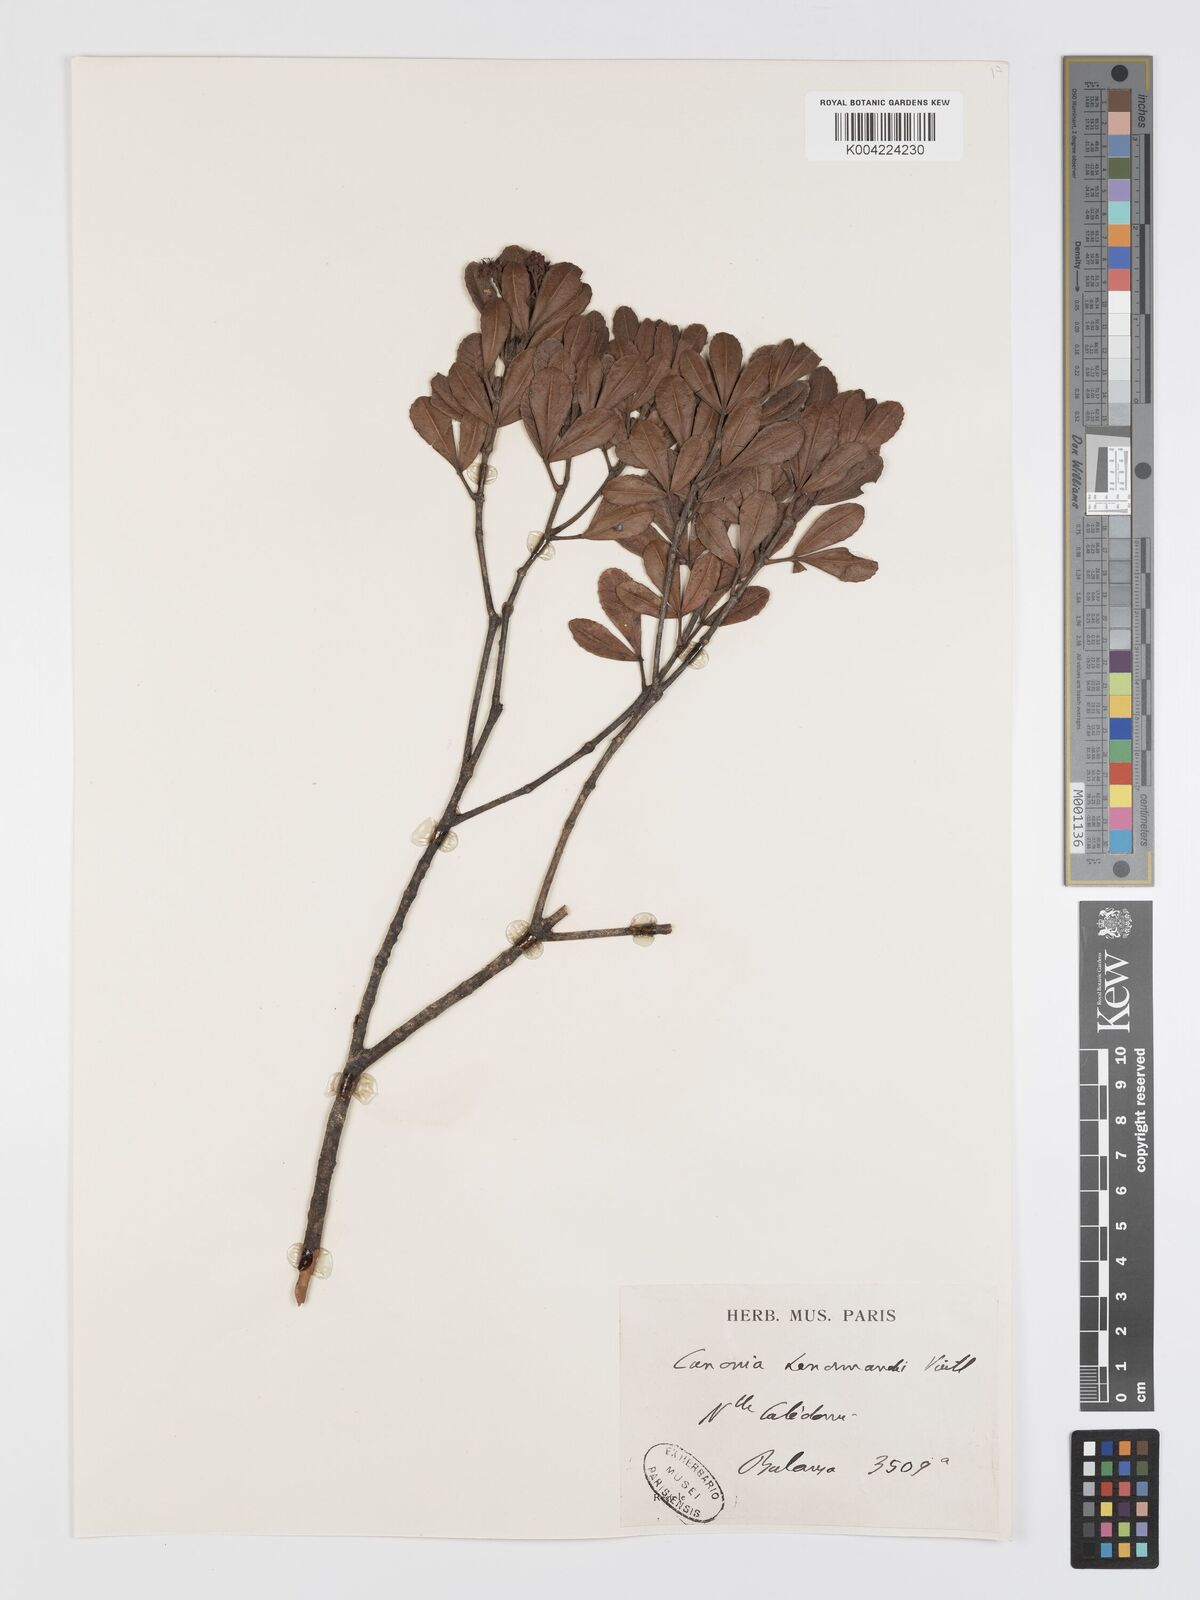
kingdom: Plantae
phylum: Tracheophyta
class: Magnoliopsida
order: Oxalidales
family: Cunoniaceae
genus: Cunonia
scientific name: Cunonia lenormandii
